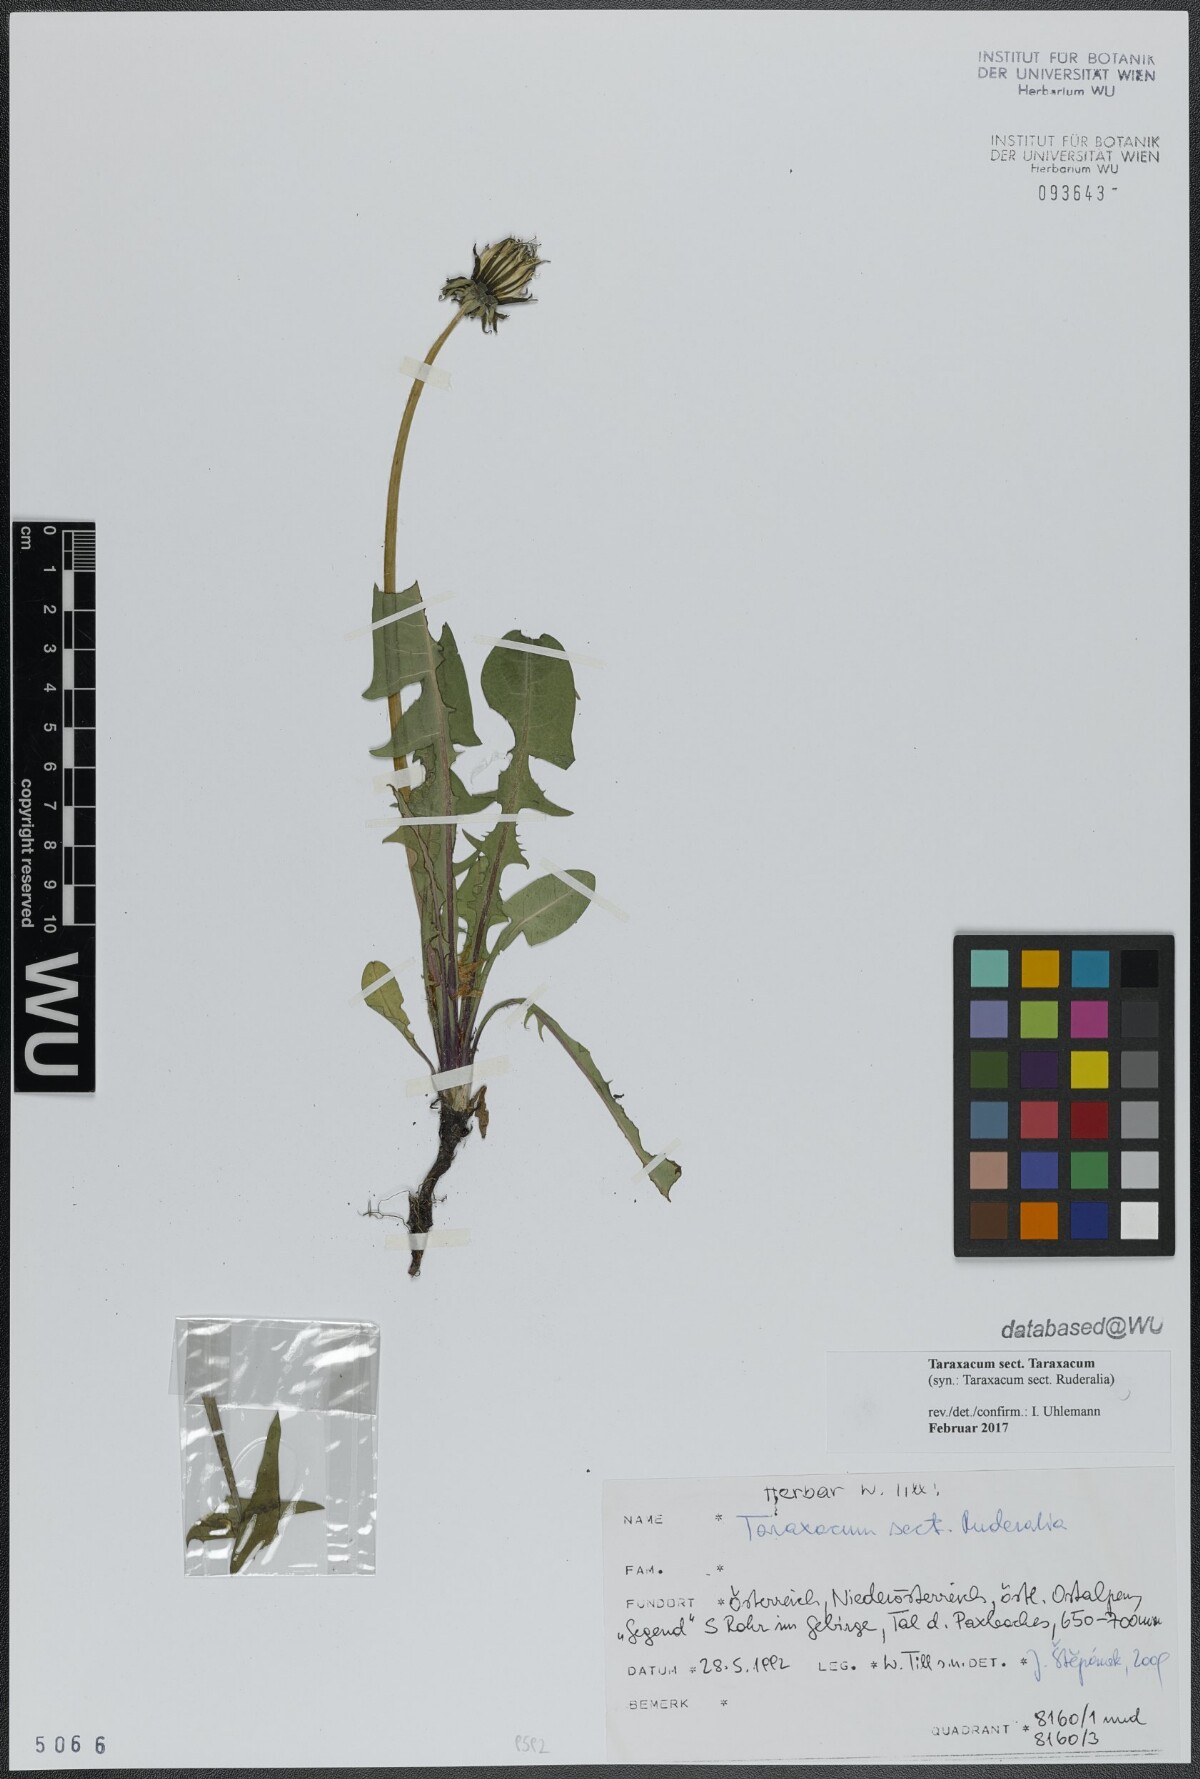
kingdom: Plantae
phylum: Tracheophyta
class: Magnoliopsida
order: Asterales
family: Asteraceae
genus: Taraxacum
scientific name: Taraxacum
